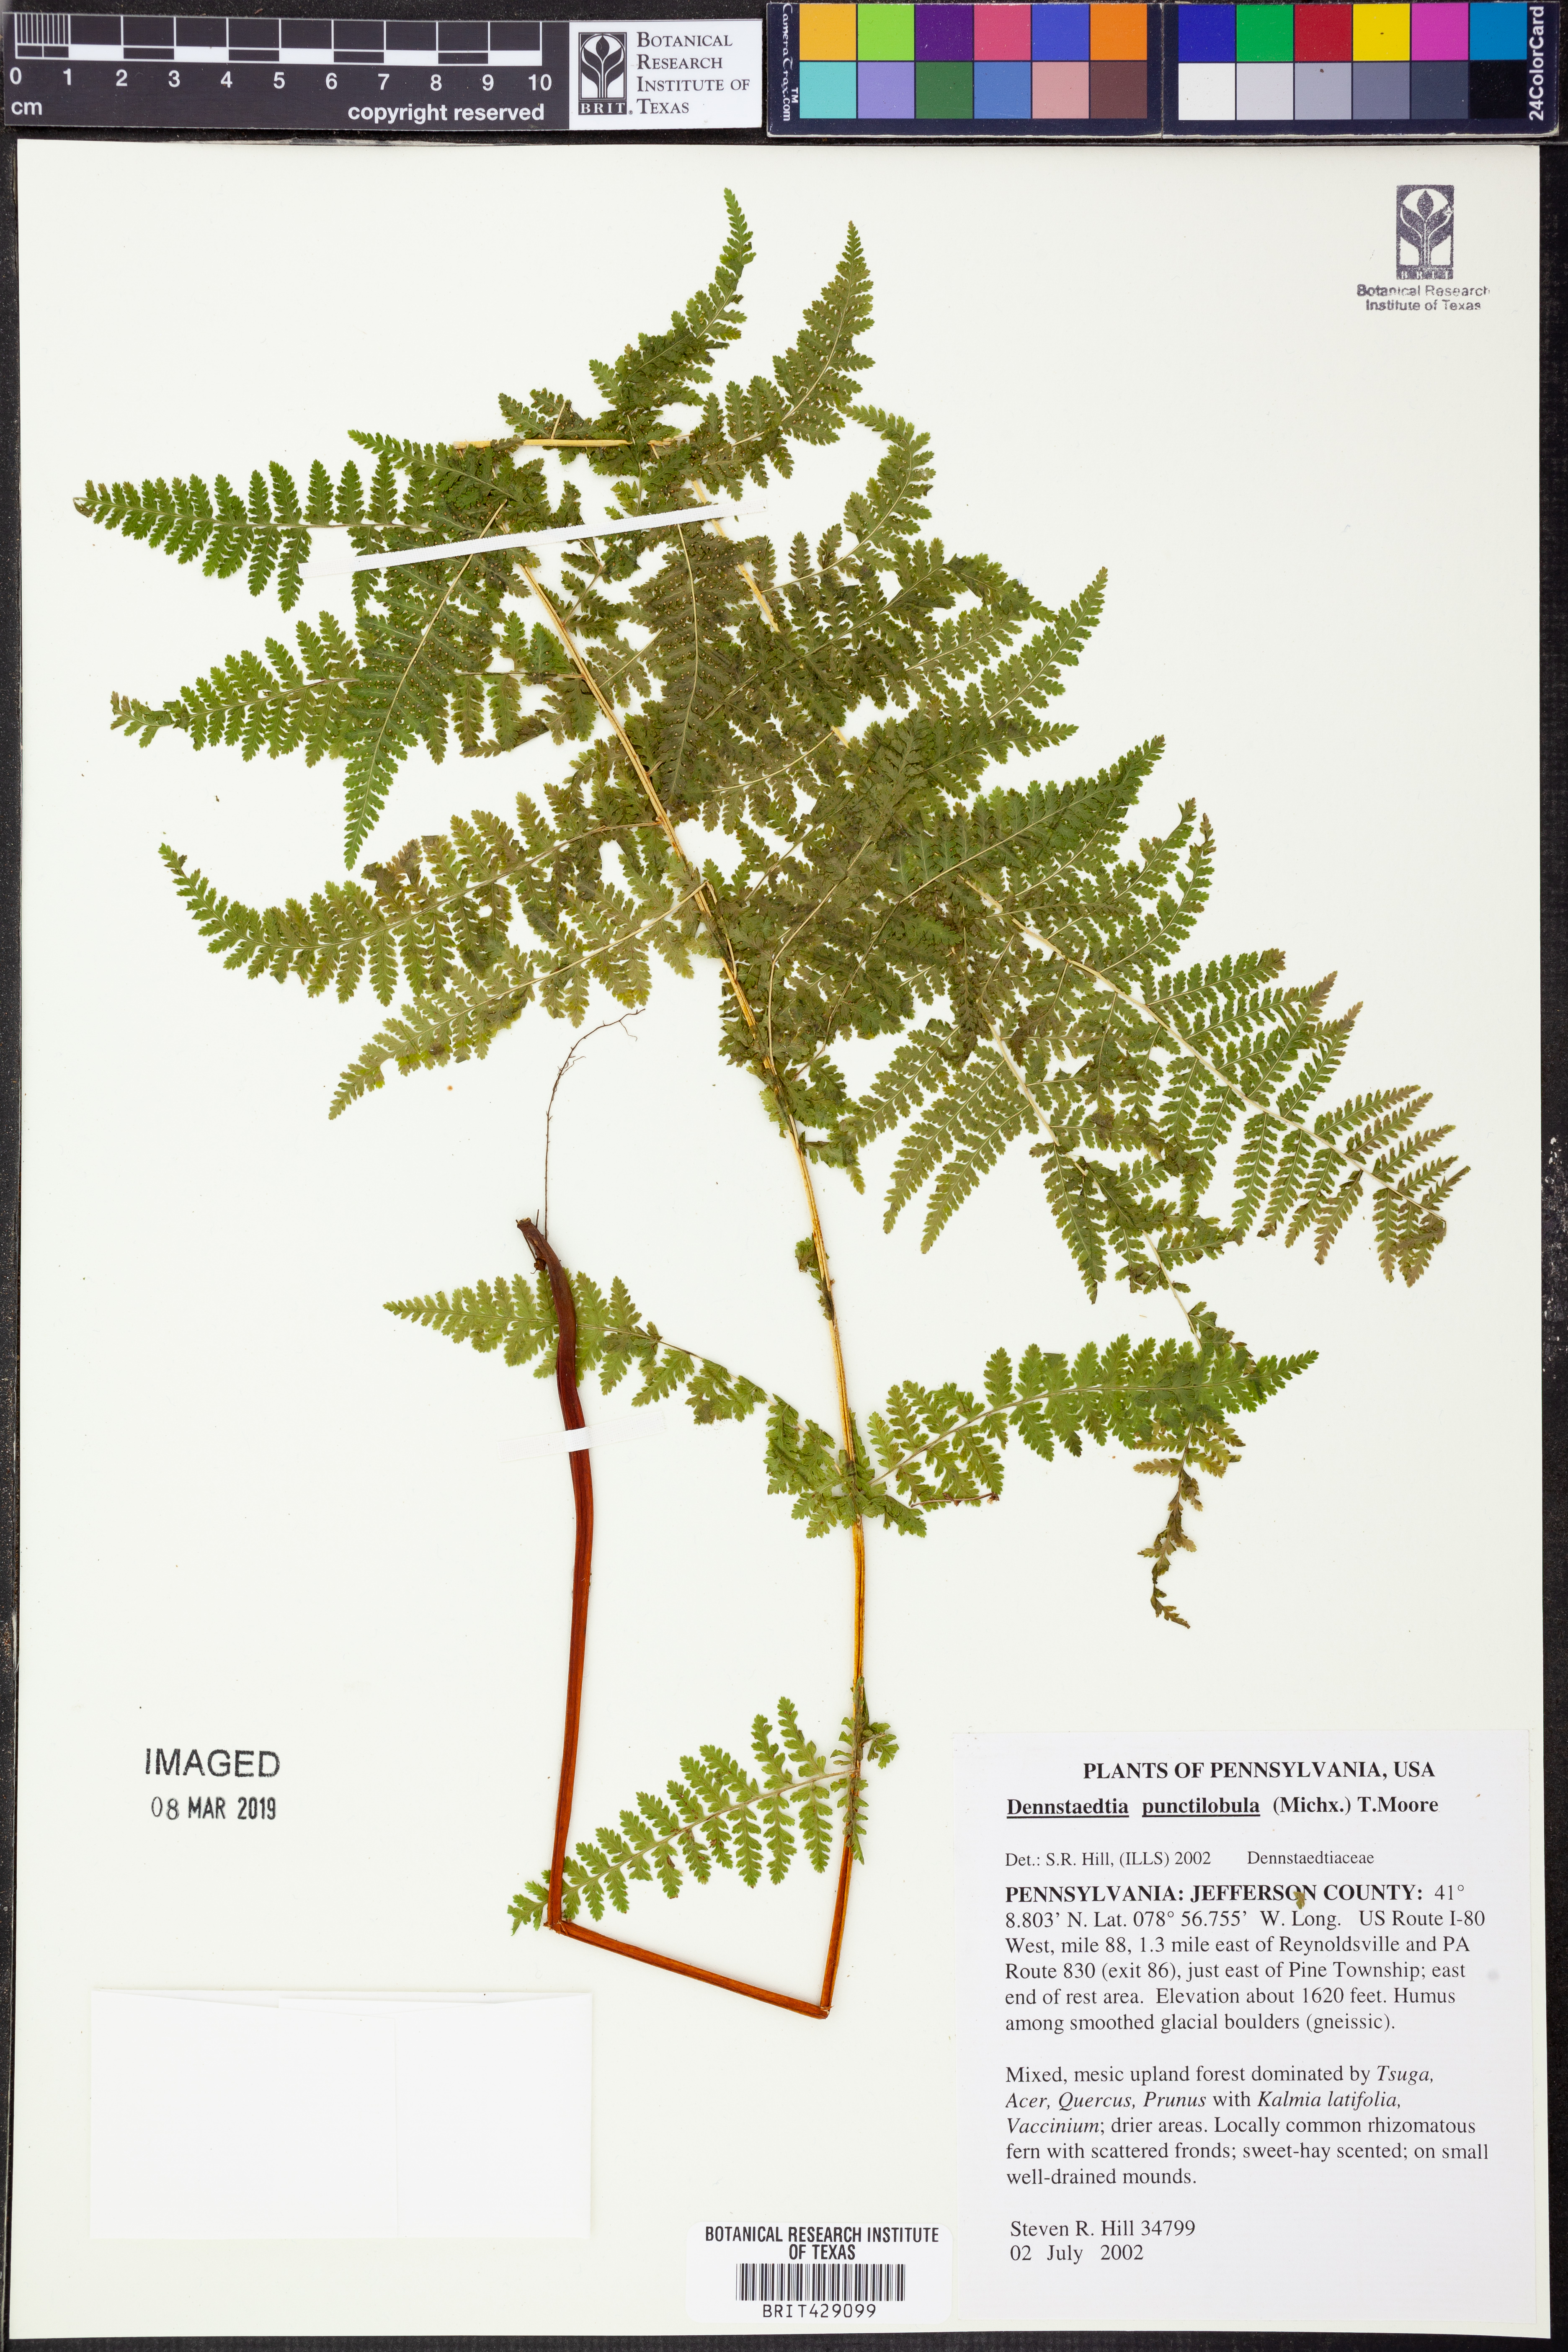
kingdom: Plantae
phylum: Tracheophyta
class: Polypodiopsida
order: Polypodiales
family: Dennstaedtiaceae
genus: Sitobolium
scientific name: Sitobolium punctilobum
